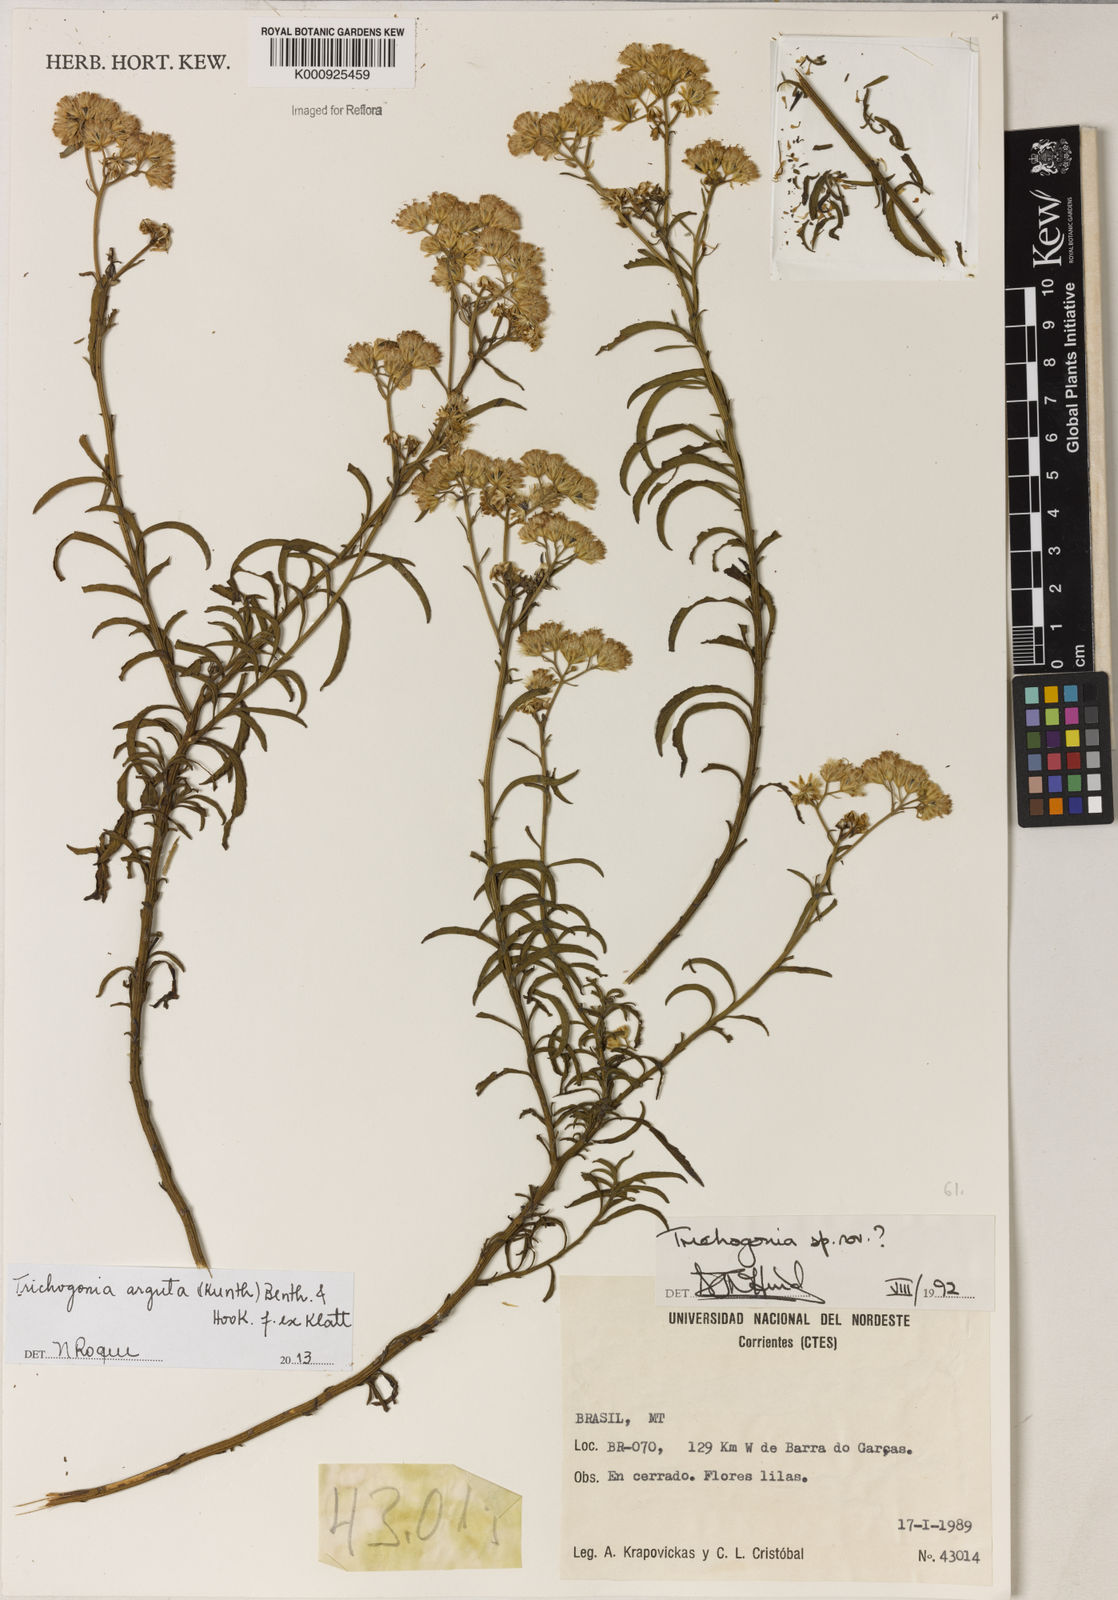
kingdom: Plantae
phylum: Tracheophyta
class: Magnoliopsida
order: Asterales
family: Asteraceae
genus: Trichogonia
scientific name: Trichogonia
